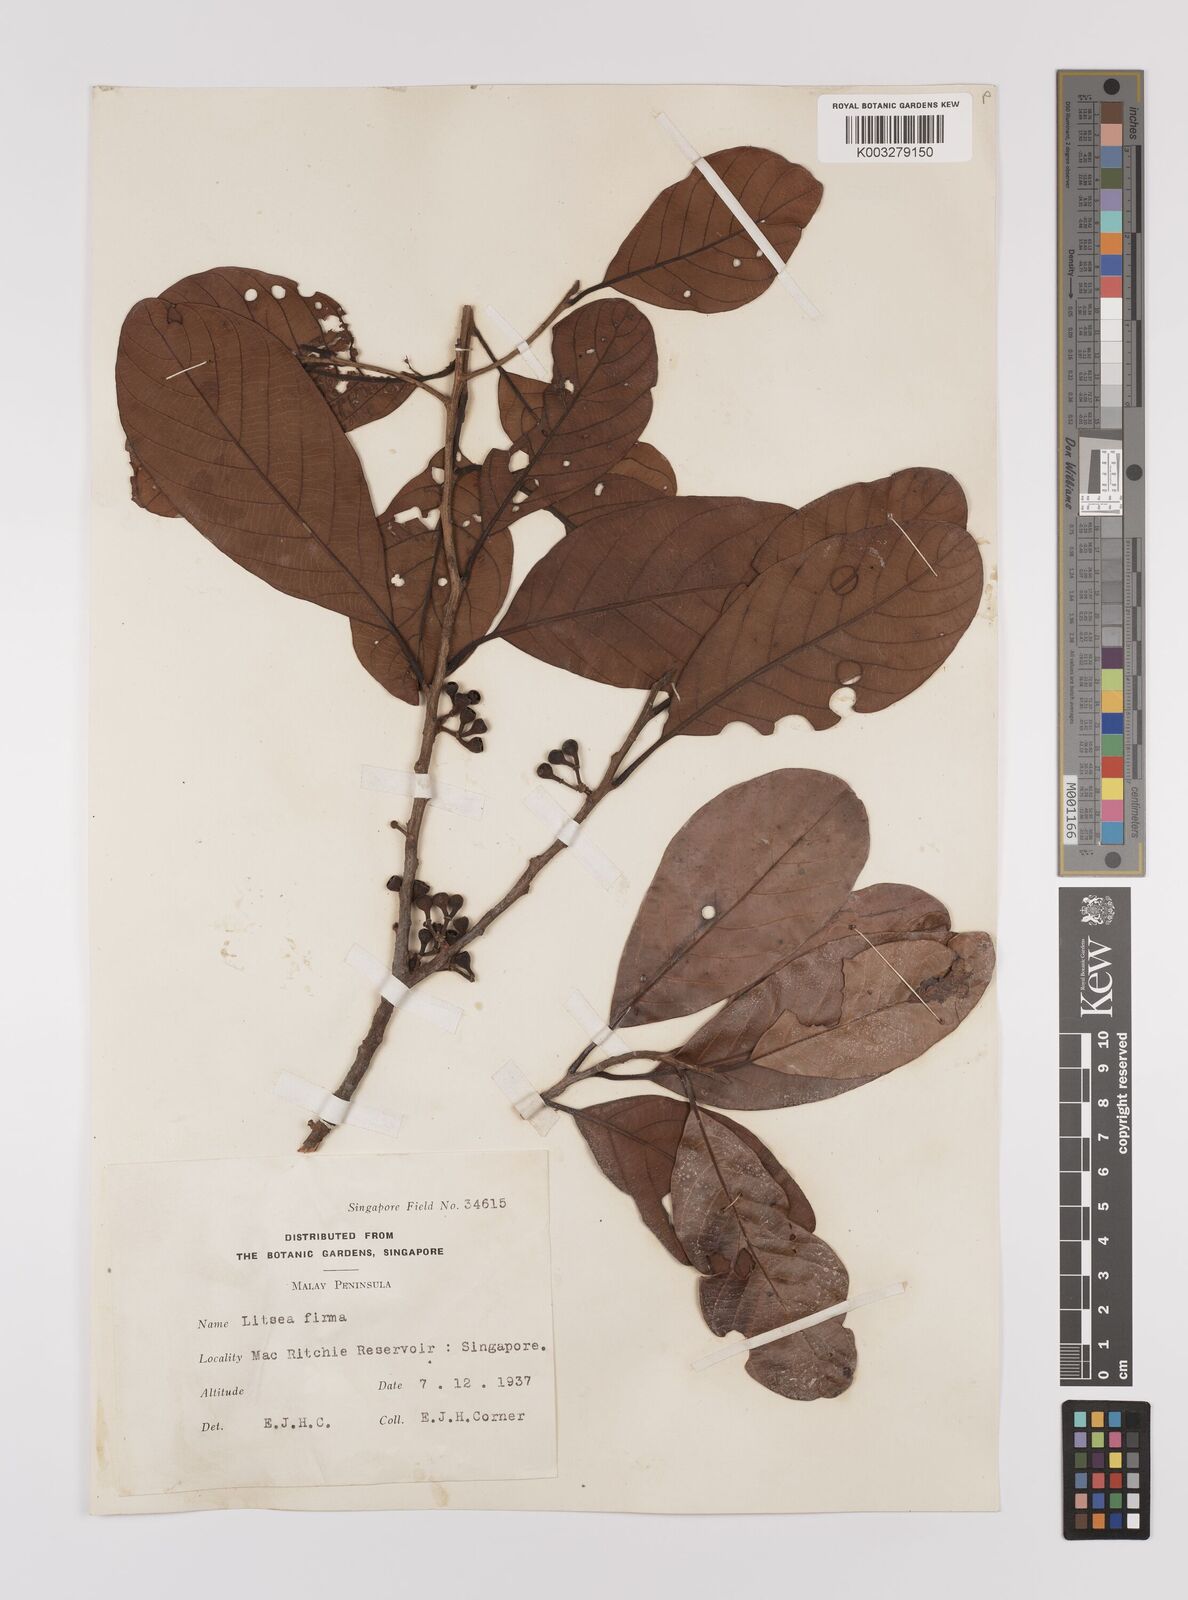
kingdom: Plantae
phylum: Tracheophyta
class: Magnoliopsida
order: Laurales
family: Lauraceae
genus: Litsea
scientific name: Litsea firma
